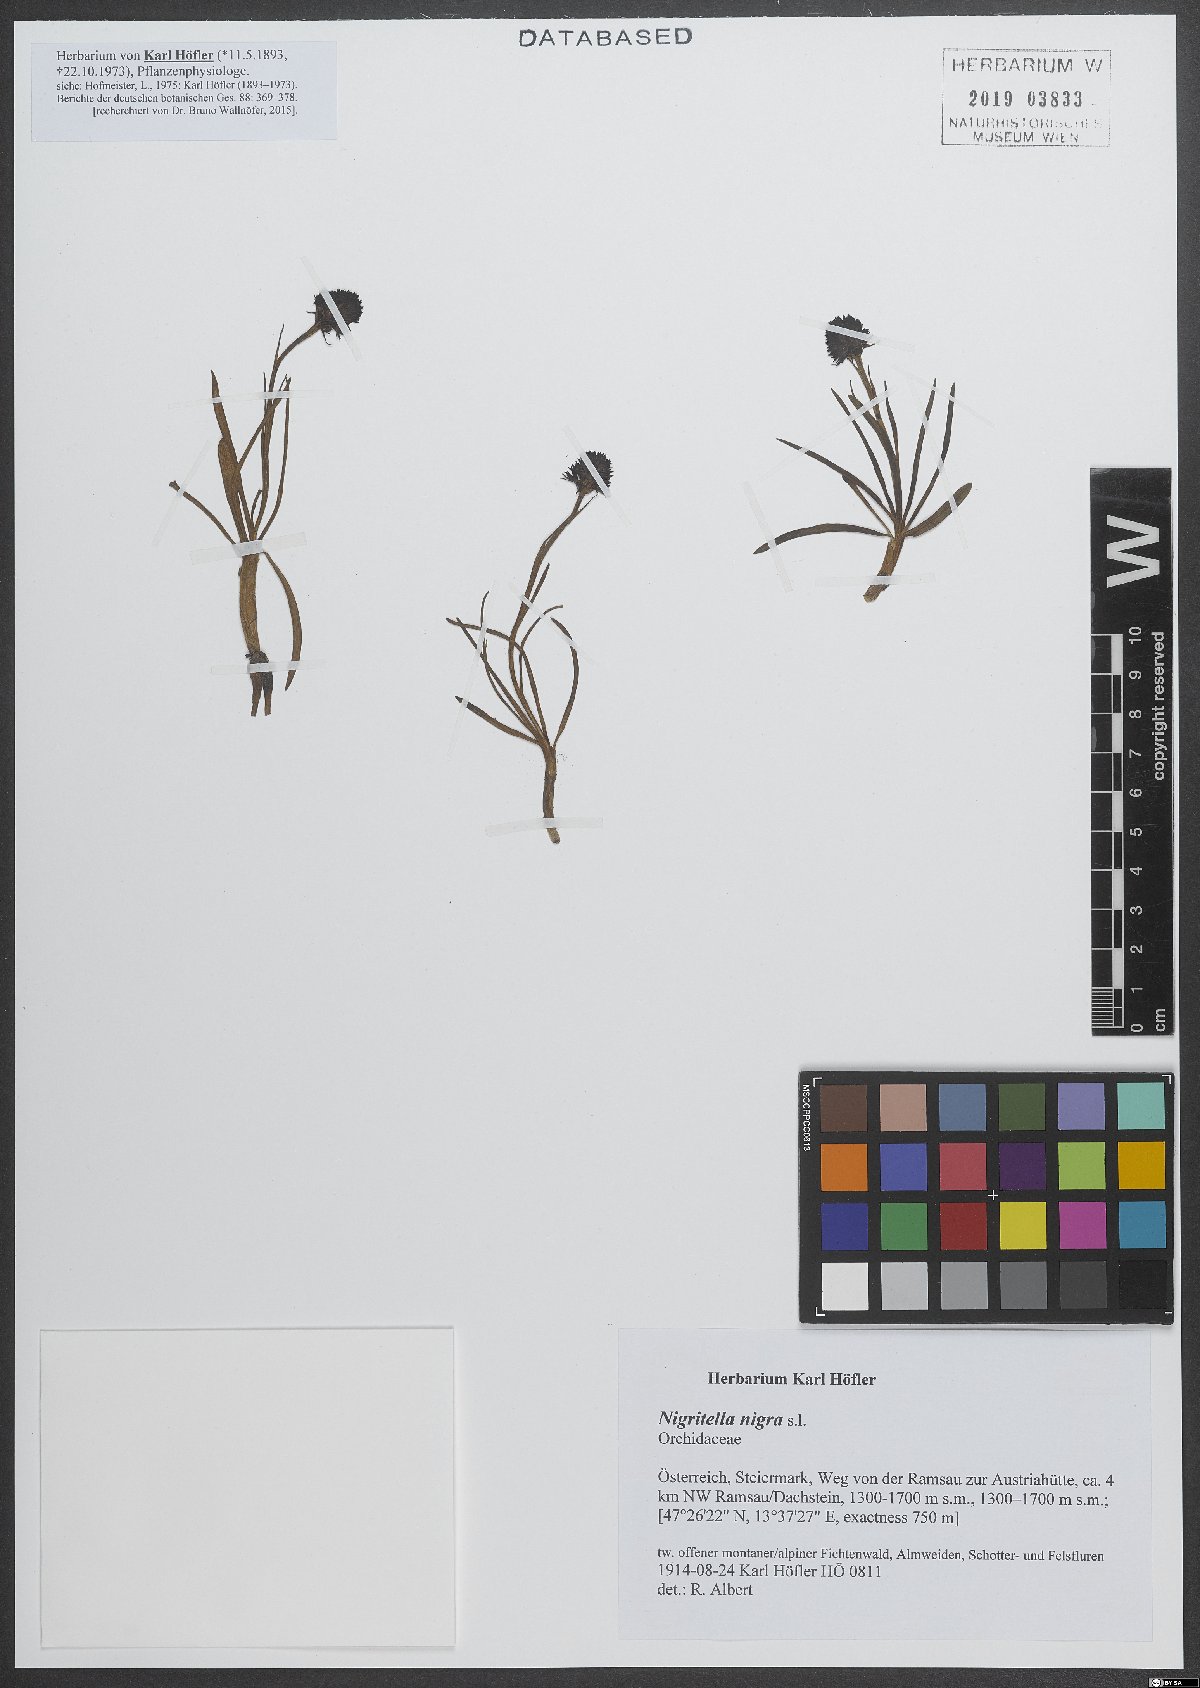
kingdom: Plantae
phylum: Tracheophyta
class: Liliopsida
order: Asparagales
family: Orchidaceae
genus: Gymnadenia
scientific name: Gymnadenia nigra
